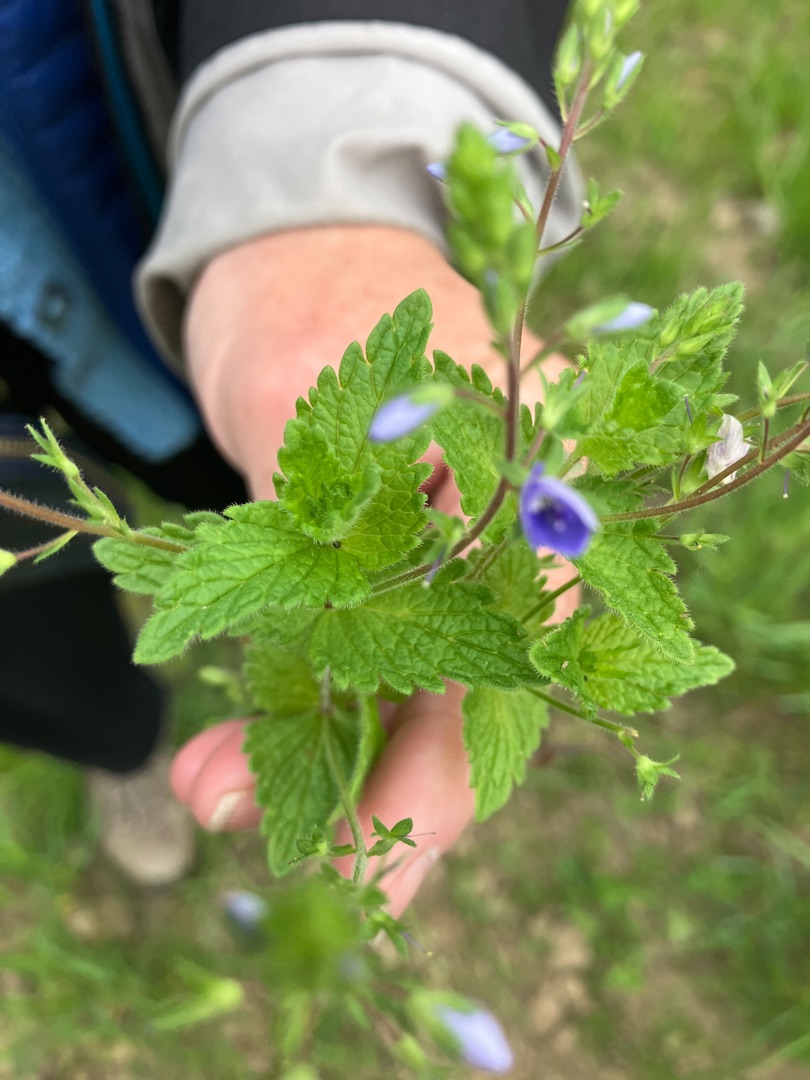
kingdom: Plantae
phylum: Tracheophyta
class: Magnoliopsida
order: Lamiales
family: Plantaginaceae
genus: Veronica
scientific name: Veronica chamaedrys
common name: Tveskægget ærenpris
